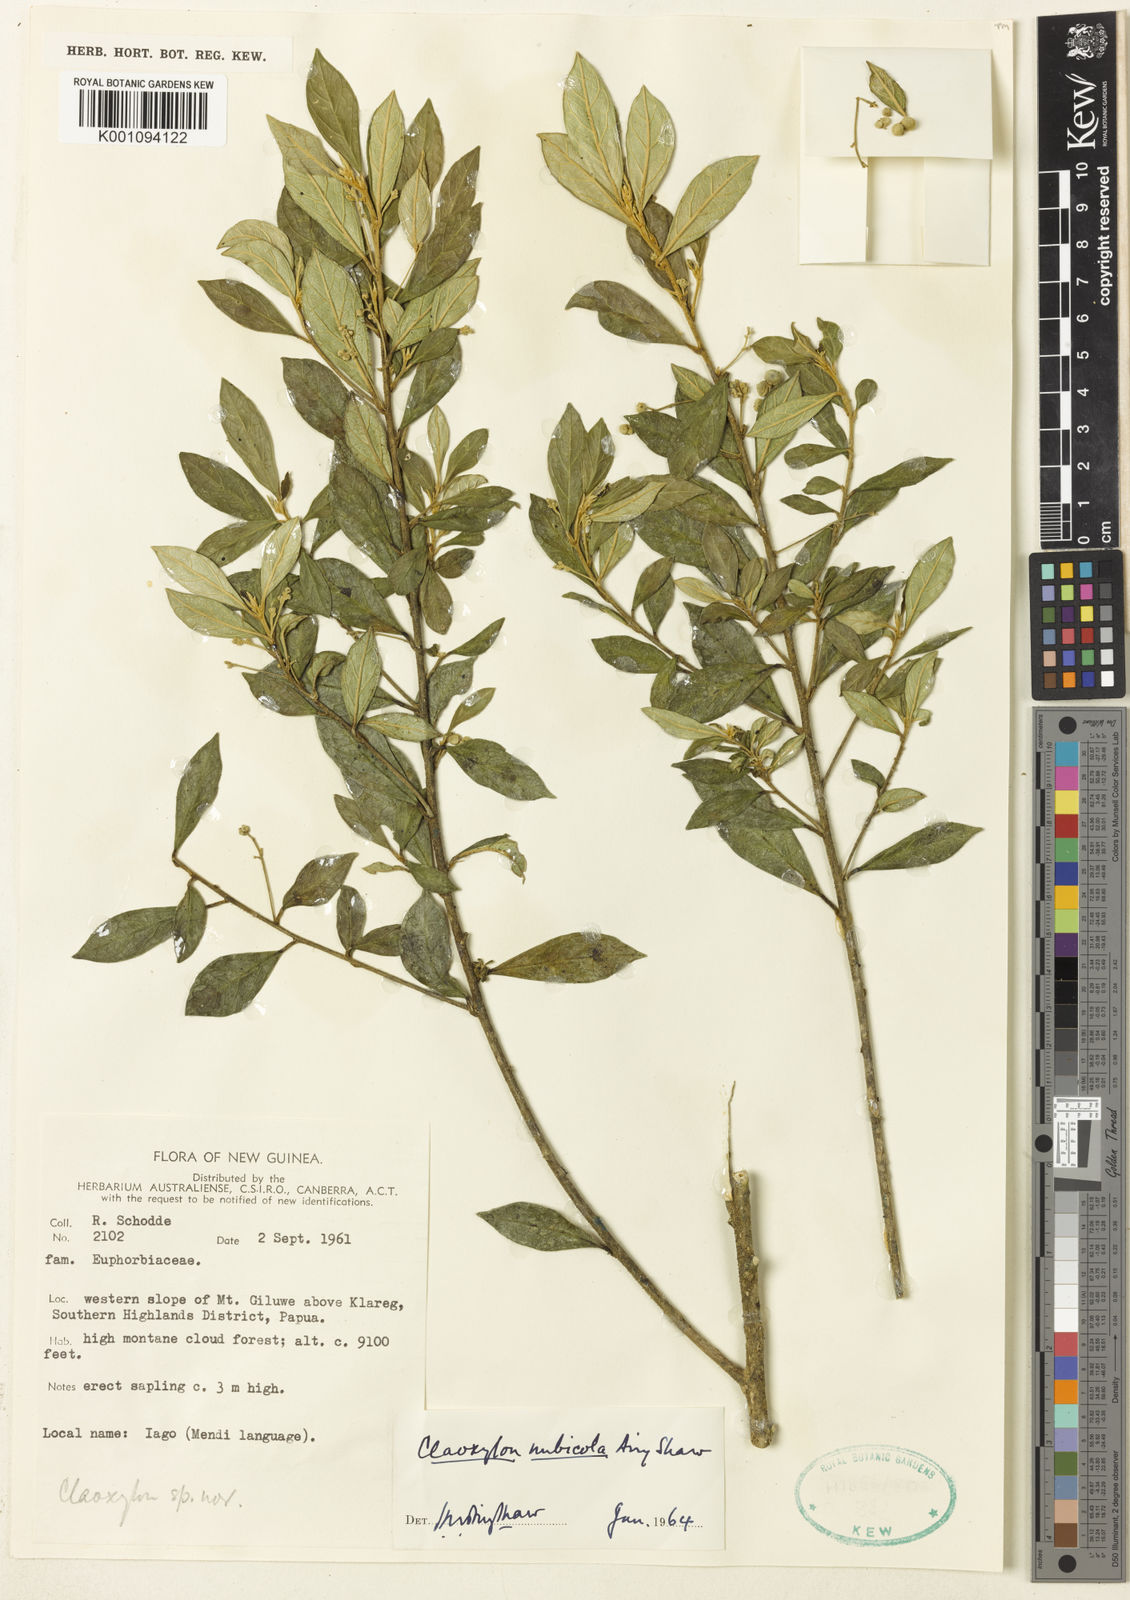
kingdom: Plantae
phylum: Tracheophyta
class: Magnoliopsida
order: Malpighiales
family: Euphorbiaceae
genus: Claoxylon
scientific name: Claoxylon nubicola
